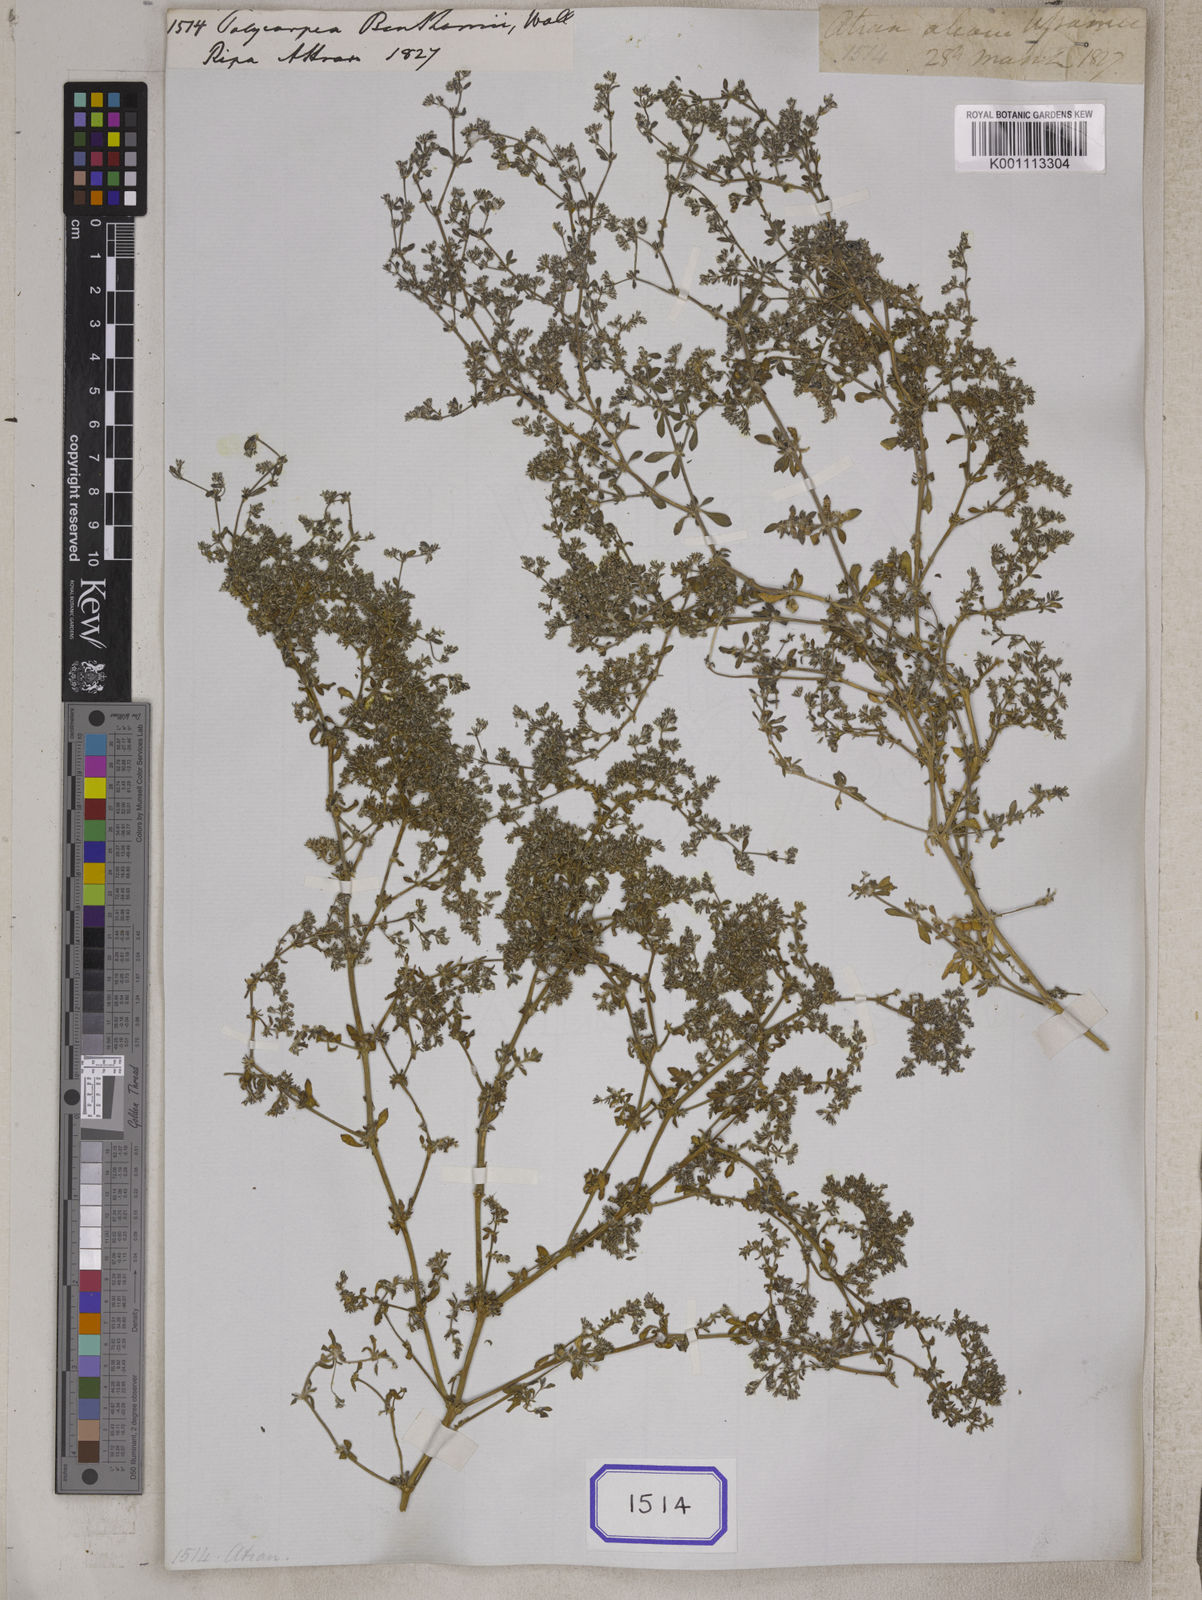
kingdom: Plantae
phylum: Tracheophyta
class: Magnoliopsida
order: Caryophyllales
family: Caryophyllaceae
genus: Polycarpon
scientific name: Polycarpon tetraphyllum
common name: Four-leaved all-seed
